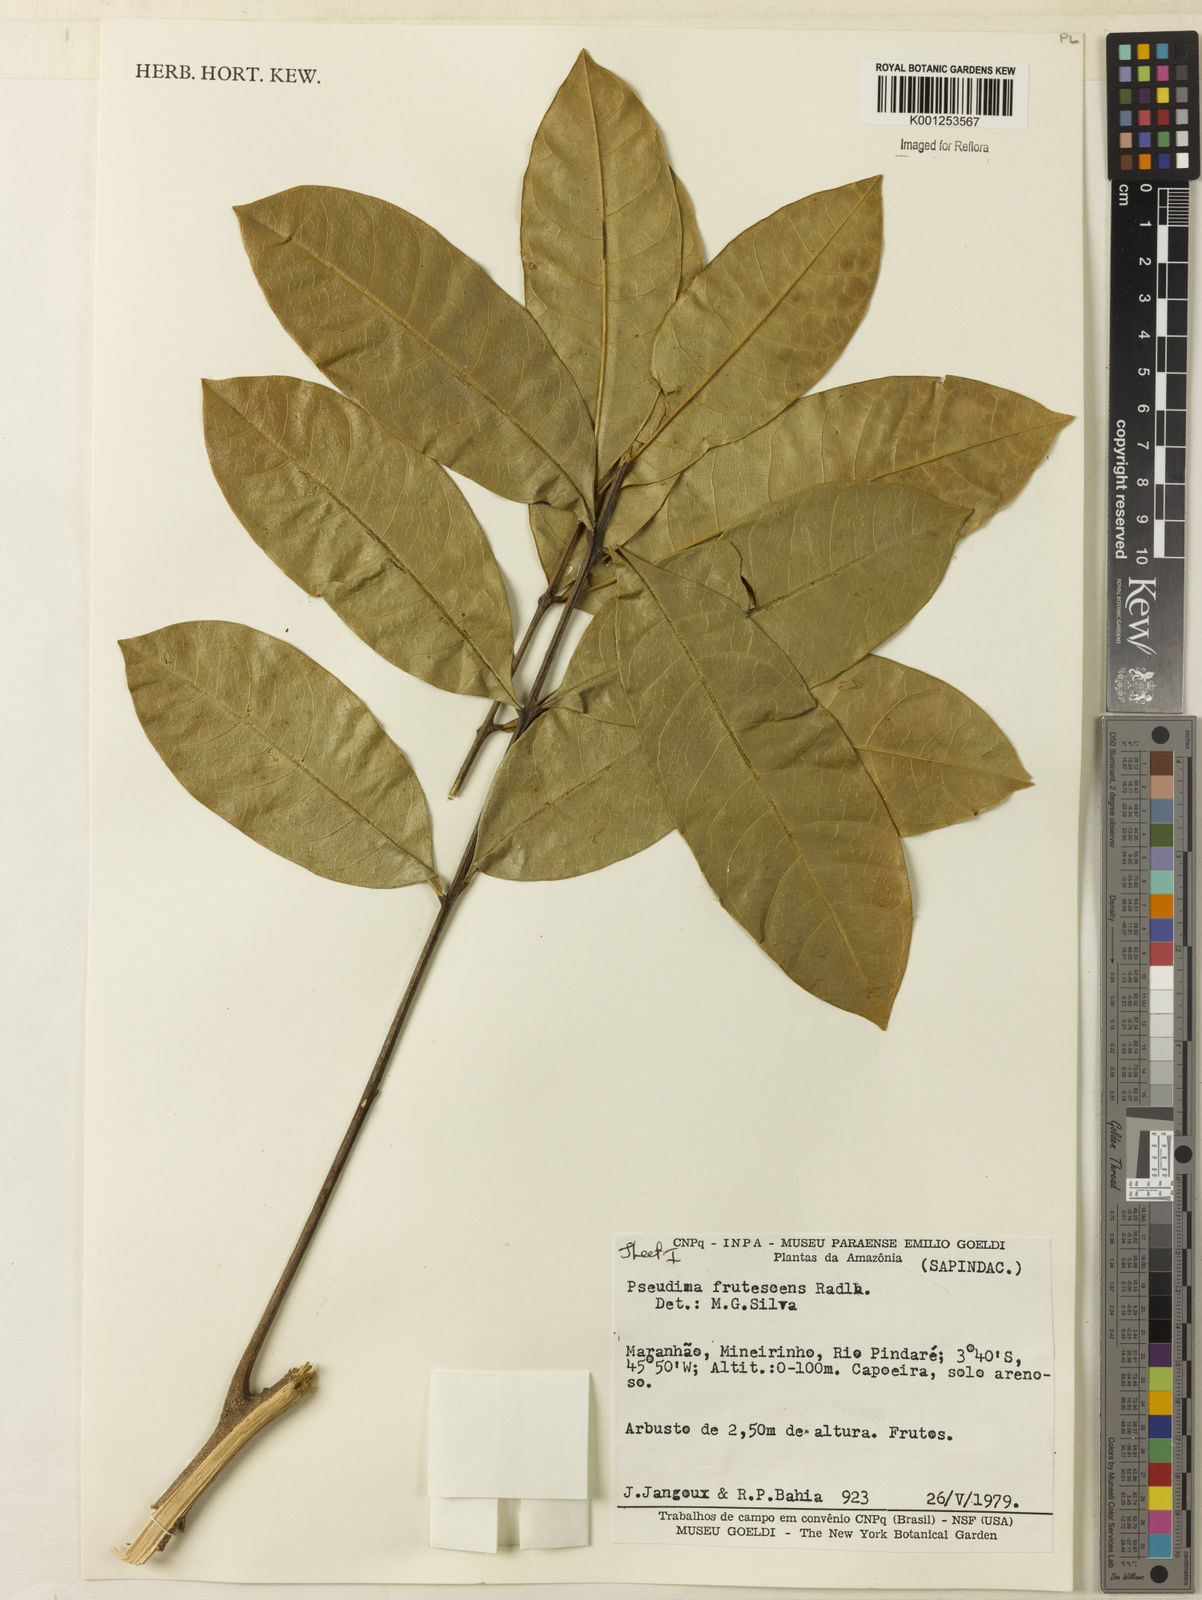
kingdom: Plantae
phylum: Tracheophyta
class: Magnoliopsida
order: Sapindales
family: Sapindaceae
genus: Pseudima
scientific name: Pseudima frutescens
